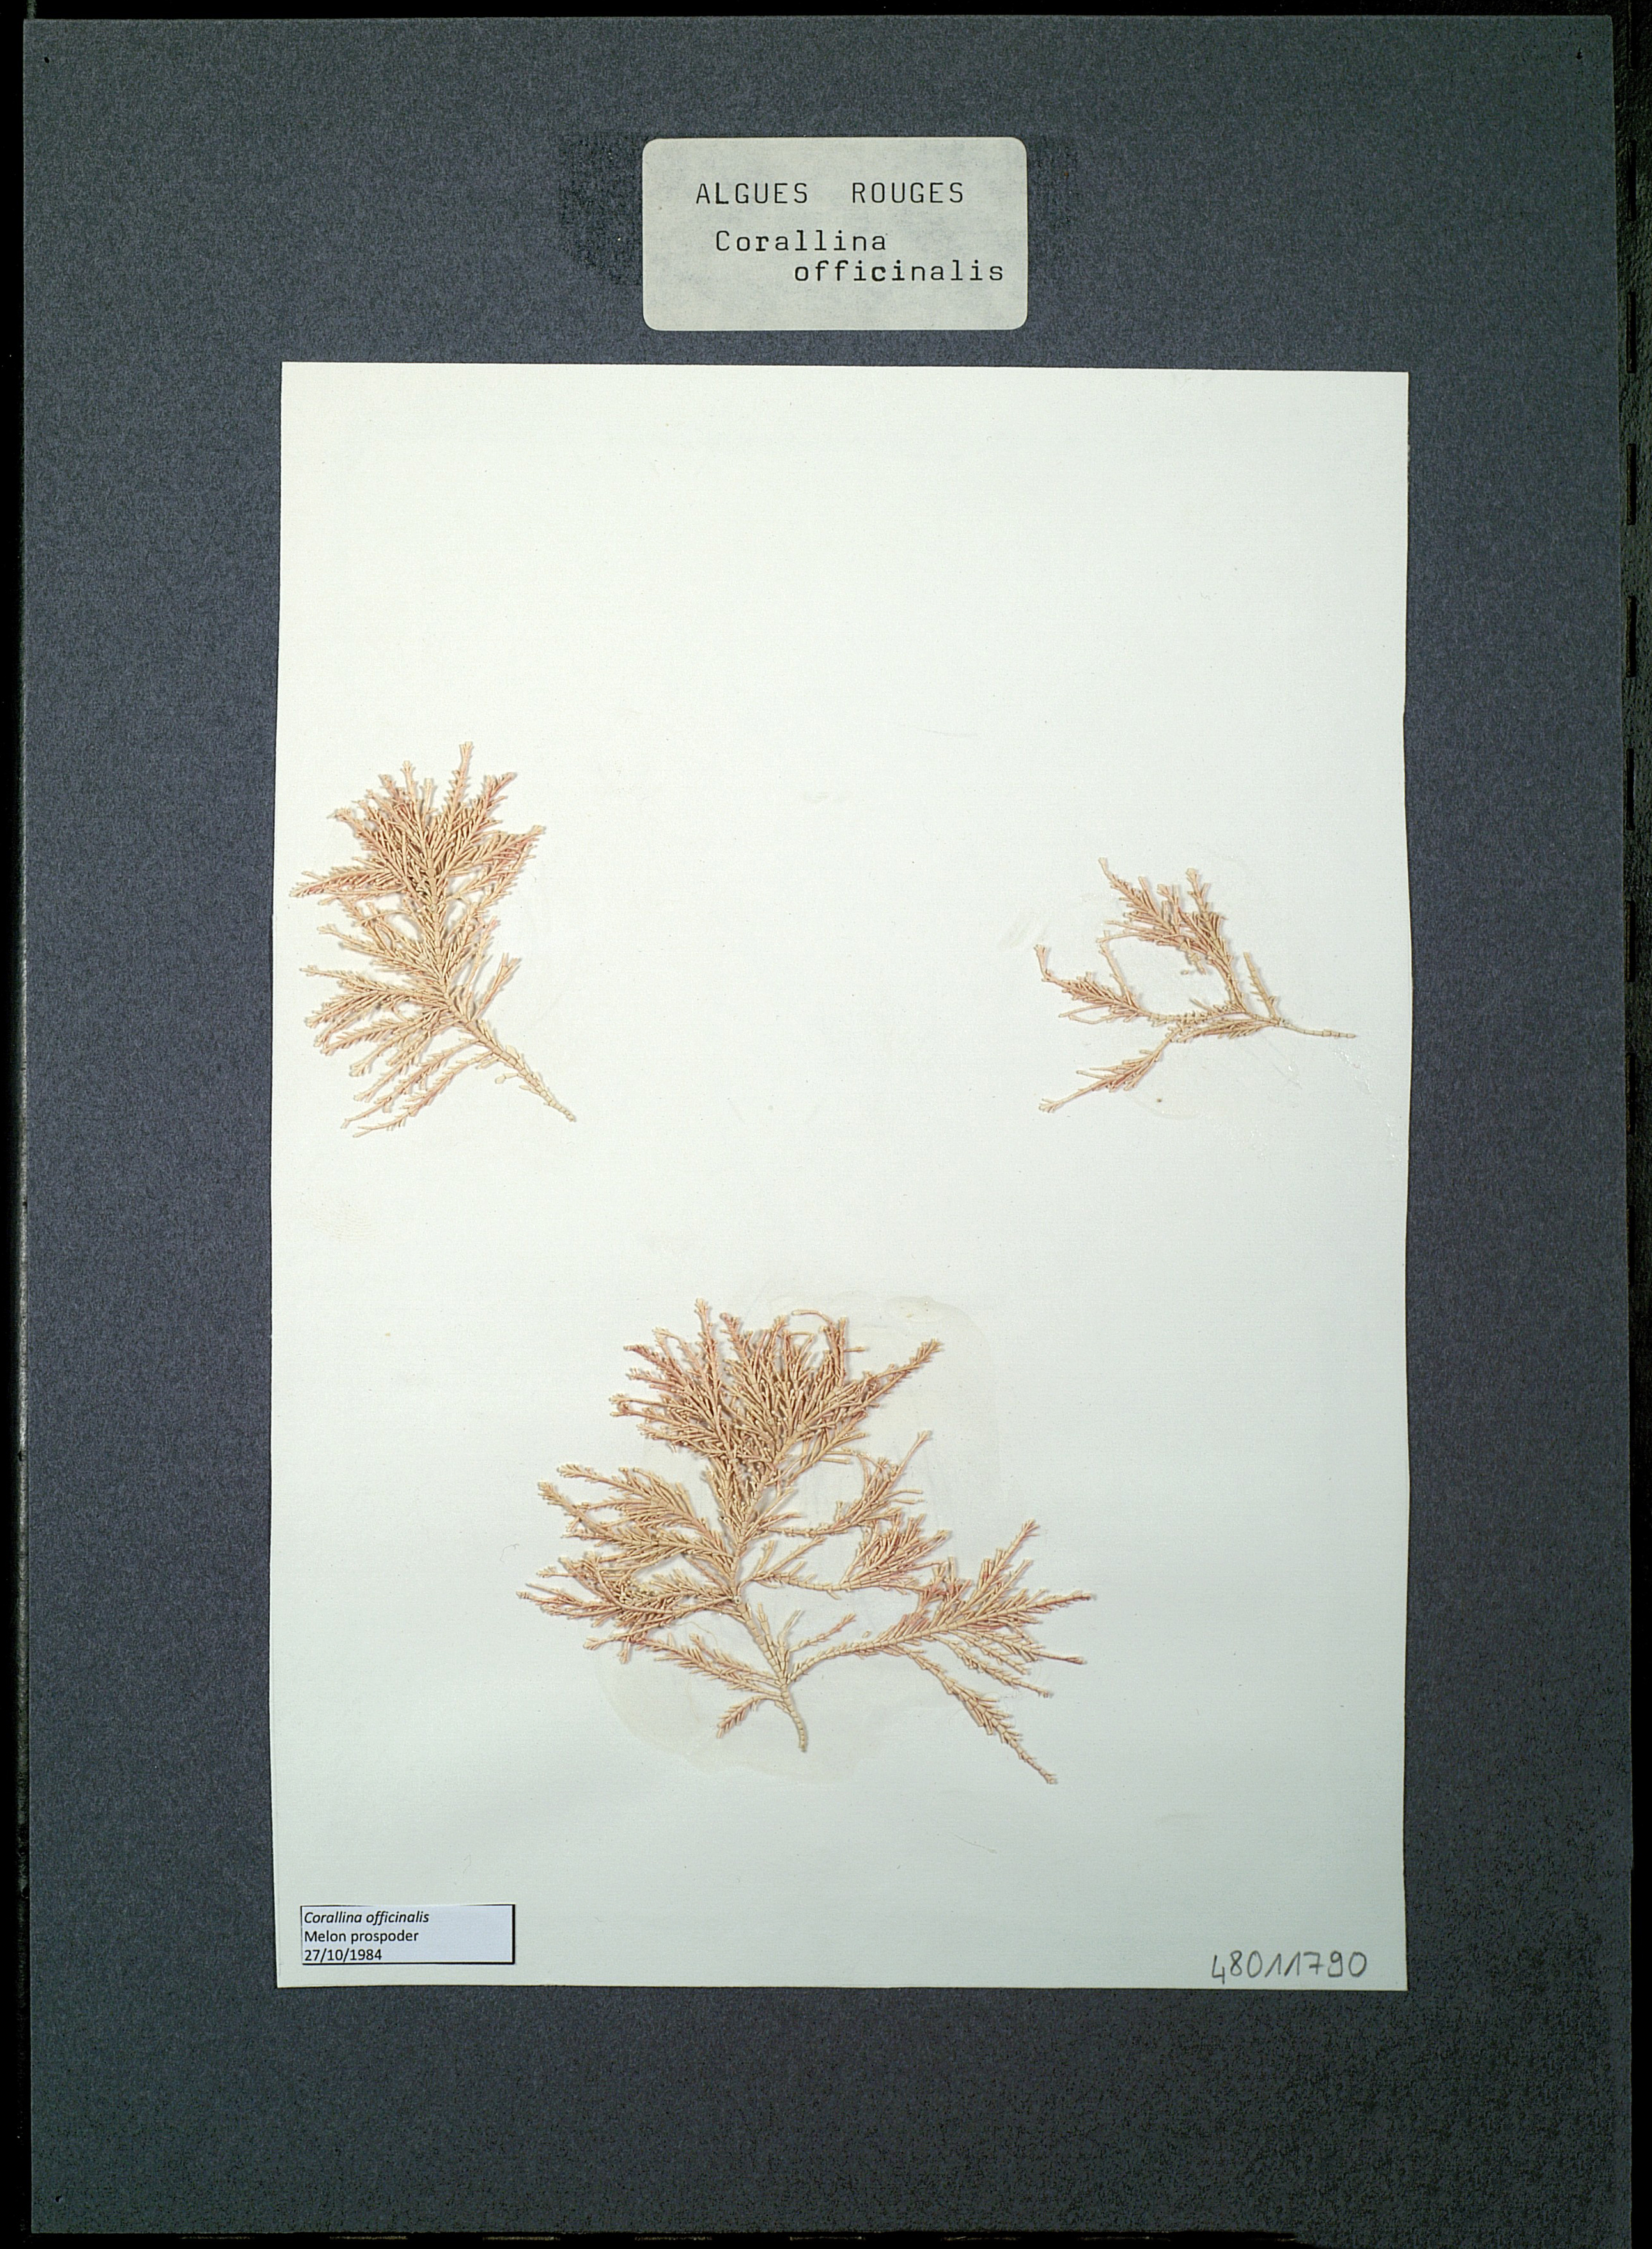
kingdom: Plantae
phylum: Rhodophyta
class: Florideophyceae
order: Corallinales
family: Corallinaceae
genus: Corallina
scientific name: Corallina officinalis
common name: Coral weed
